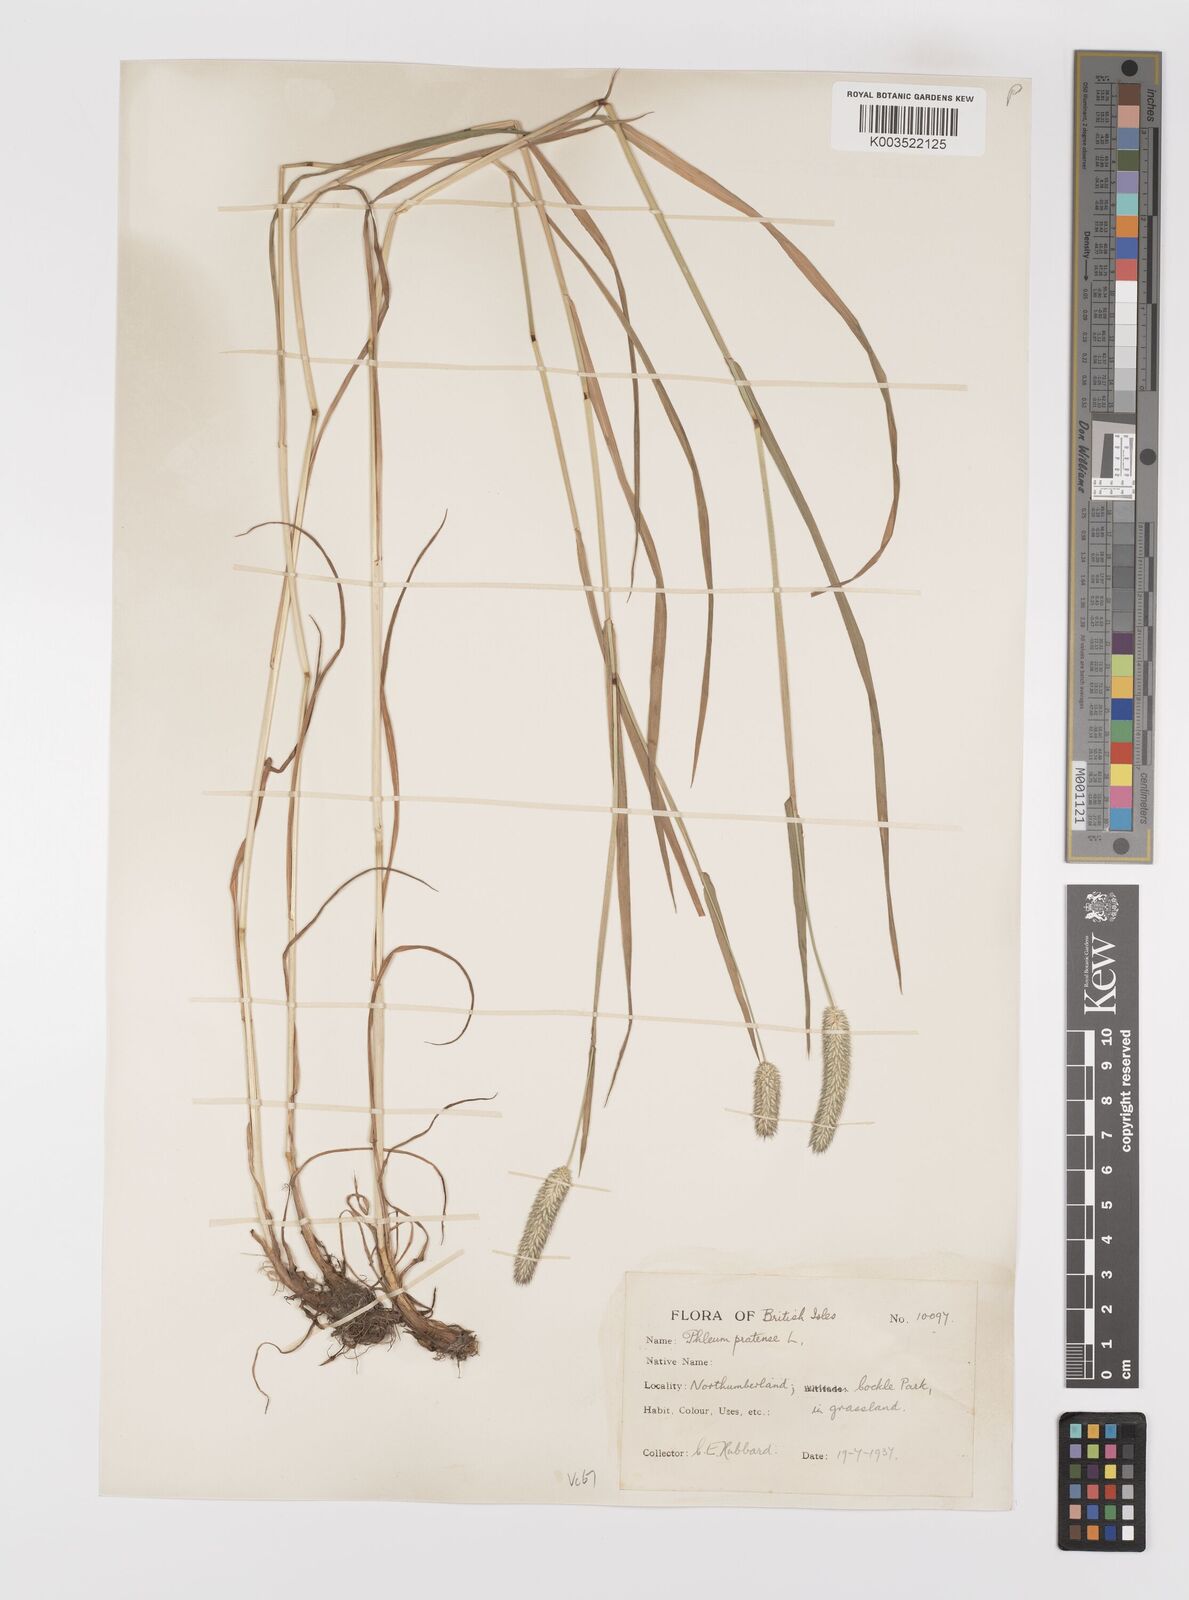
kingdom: Plantae
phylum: Tracheophyta
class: Liliopsida
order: Poales
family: Poaceae
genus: Phleum
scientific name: Phleum pratense
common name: Timothy grass
